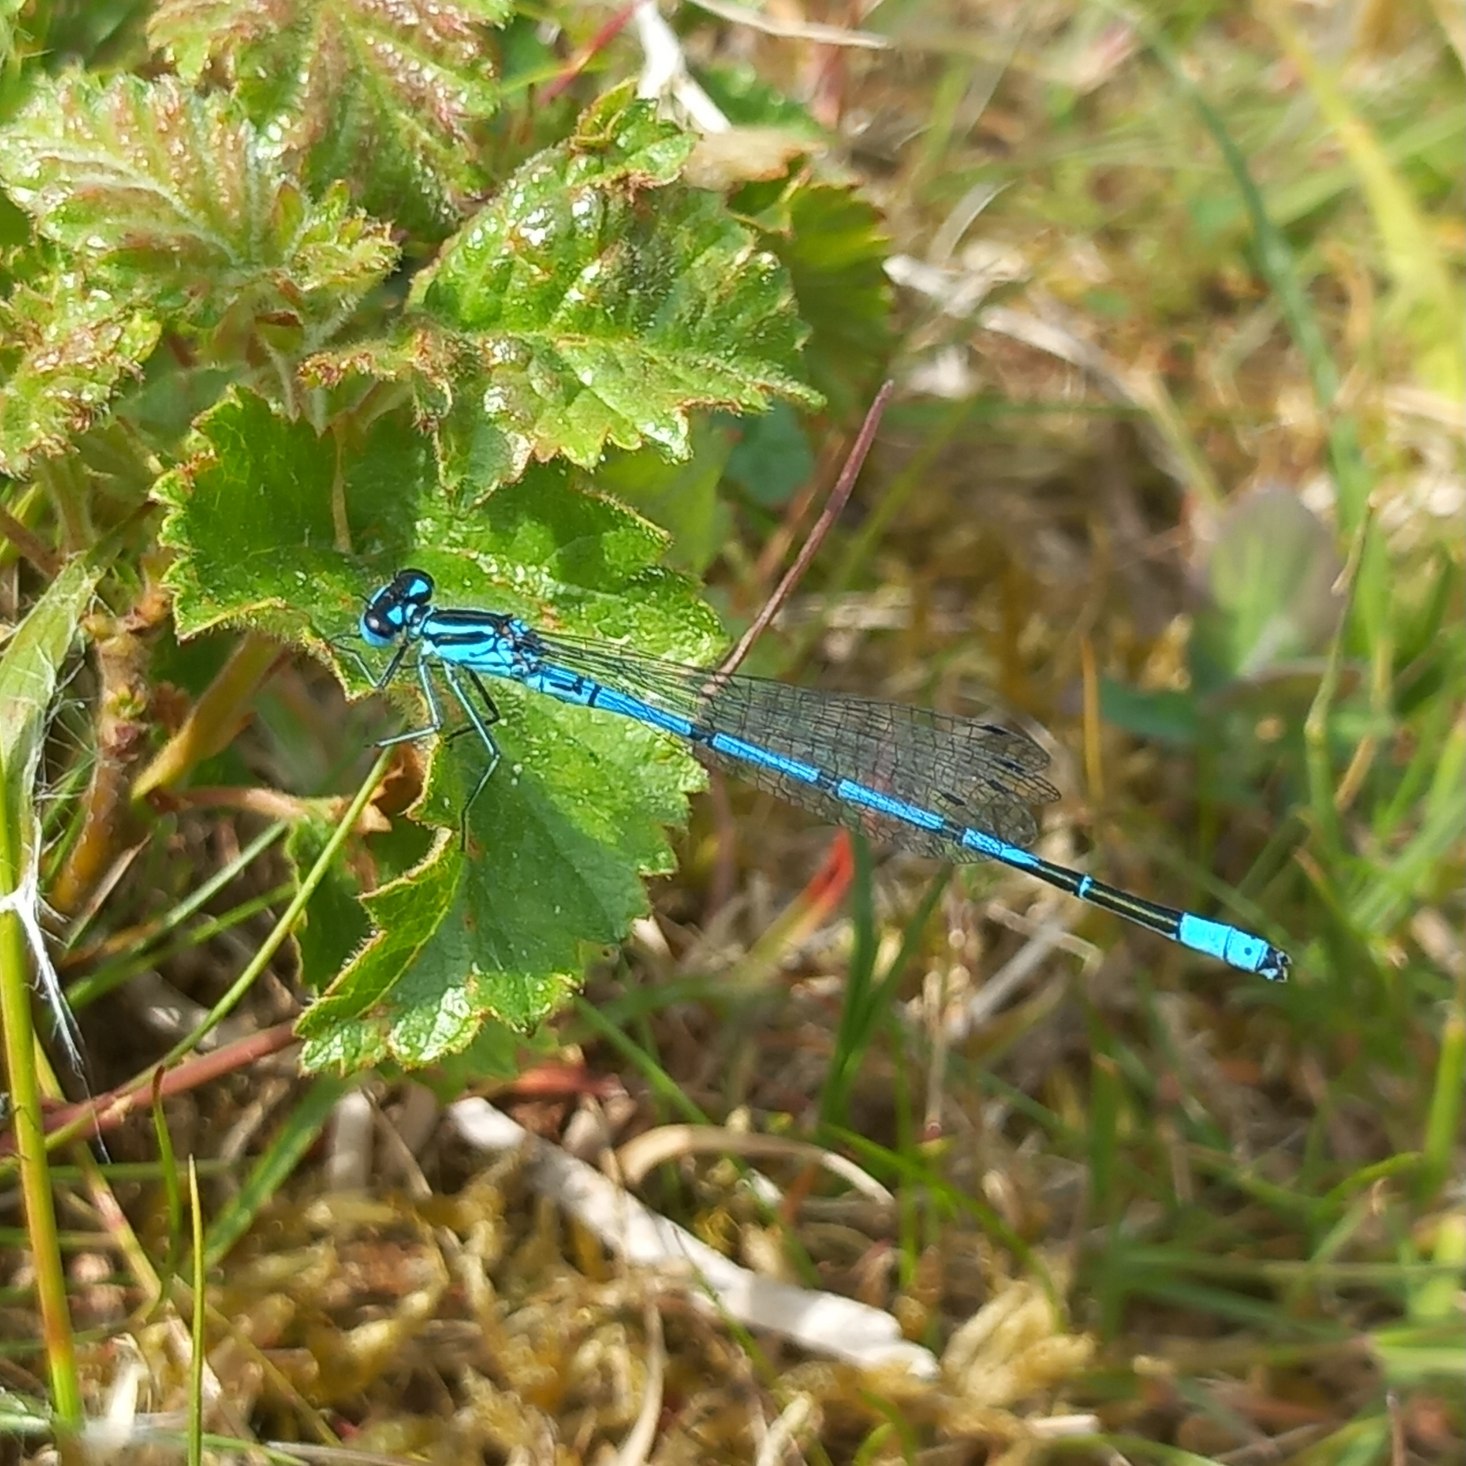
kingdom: Animalia
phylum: Arthropoda
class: Insecta
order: Odonata
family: Coenagrionidae
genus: Coenagrion
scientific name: Coenagrion puella
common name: Hestesko-vandnymfe
